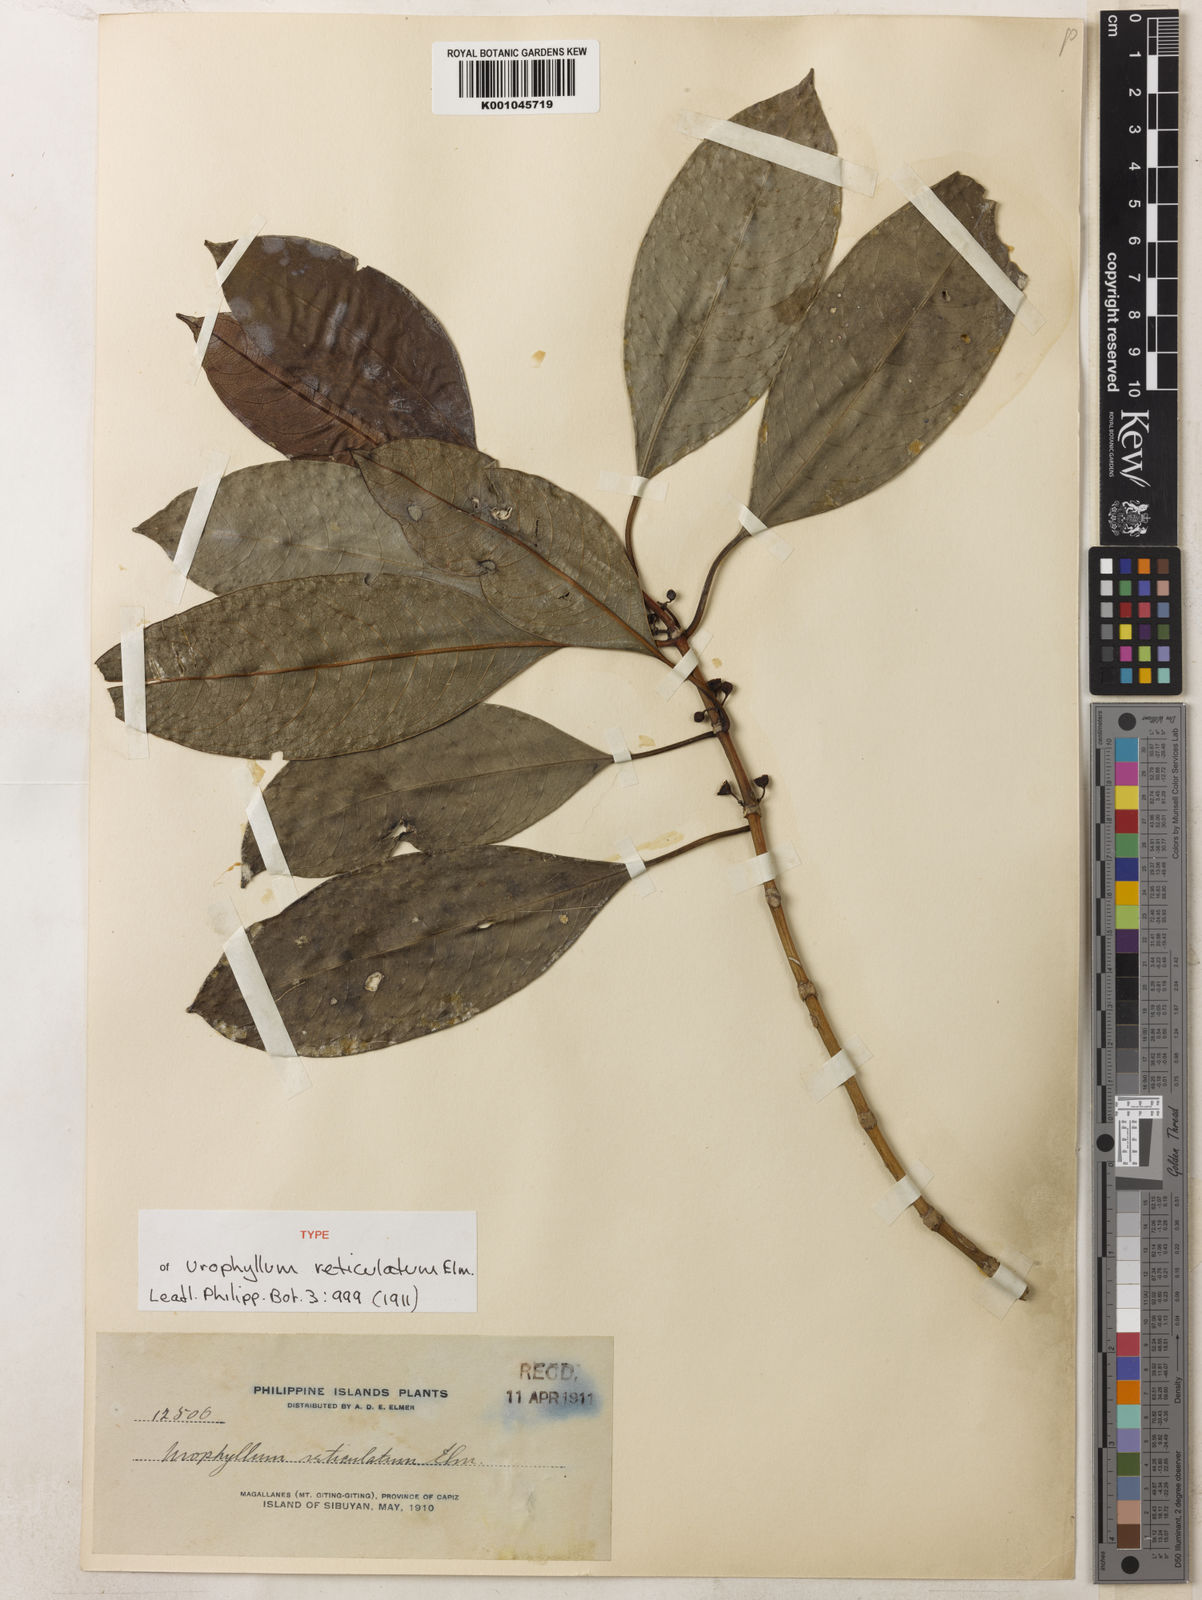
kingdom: Plantae
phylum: Tracheophyta
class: Magnoliopsida
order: Gentianales
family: Rubiaceae
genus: Urophyllum
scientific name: Urophyllum reticulatum
